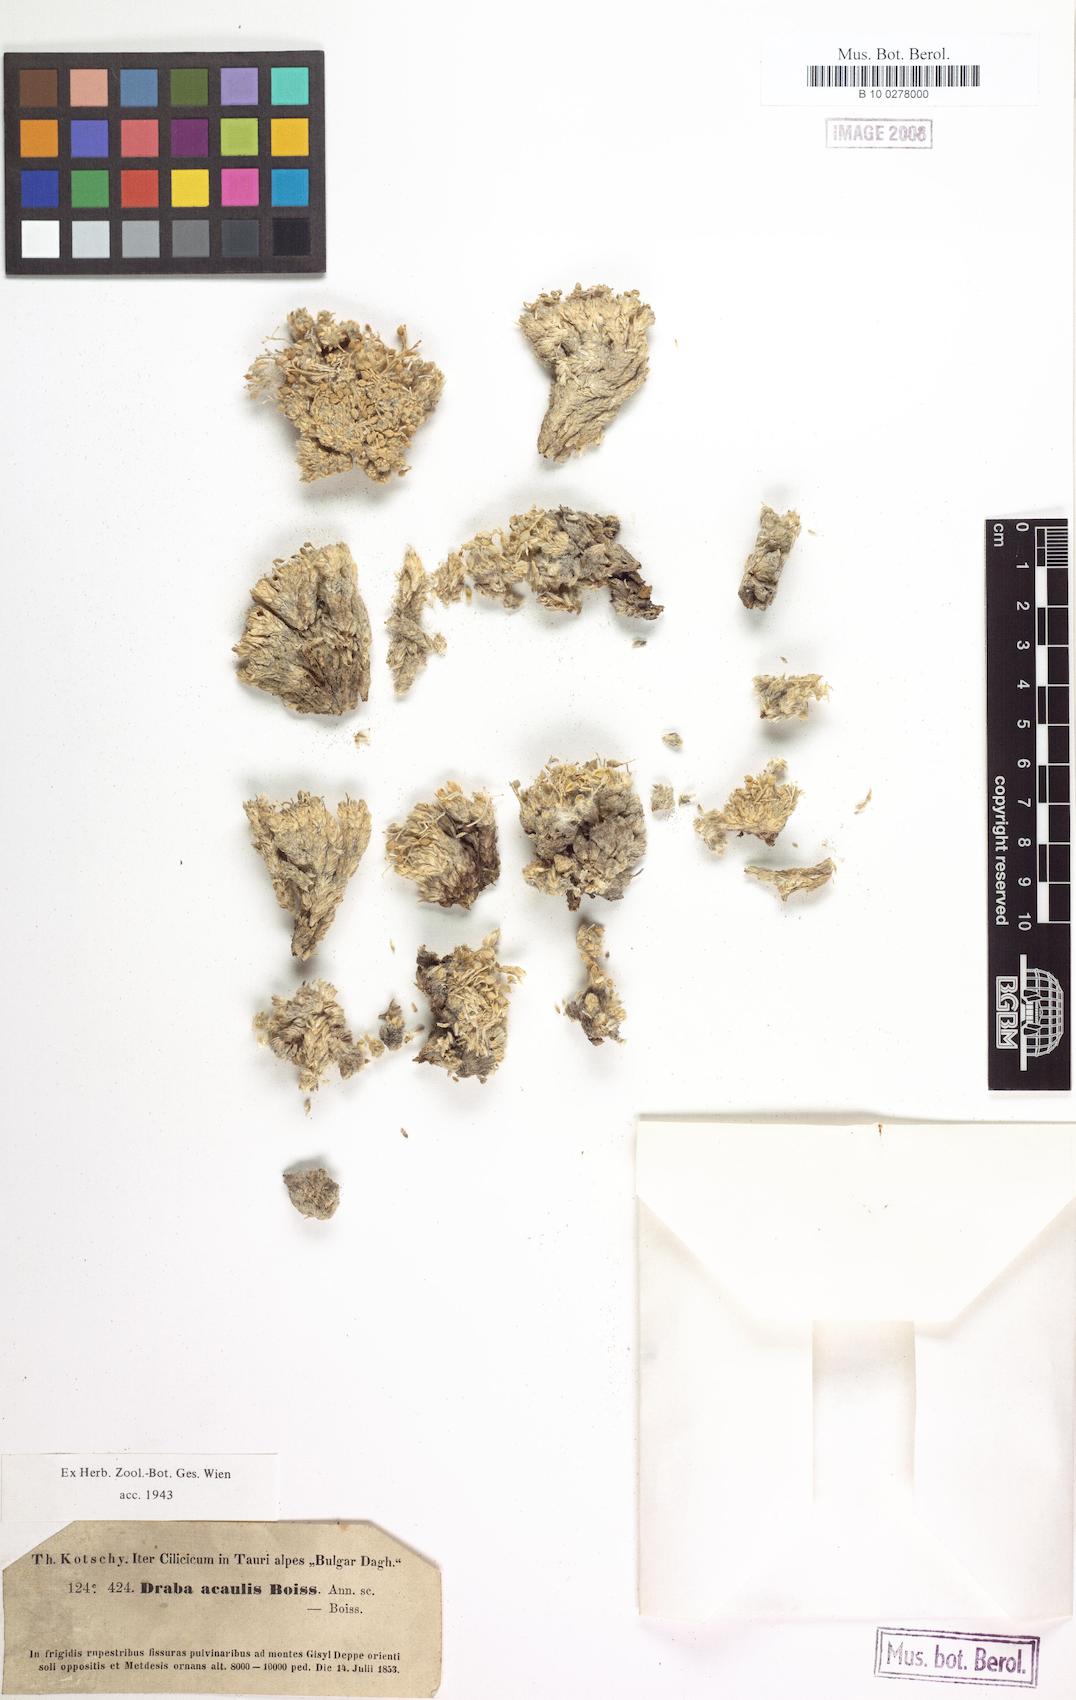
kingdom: Plantae
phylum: Tracheophyta
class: Magnoliopsida
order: Brassicales
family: Brassicaceae
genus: Draba
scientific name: Draba acaulis
